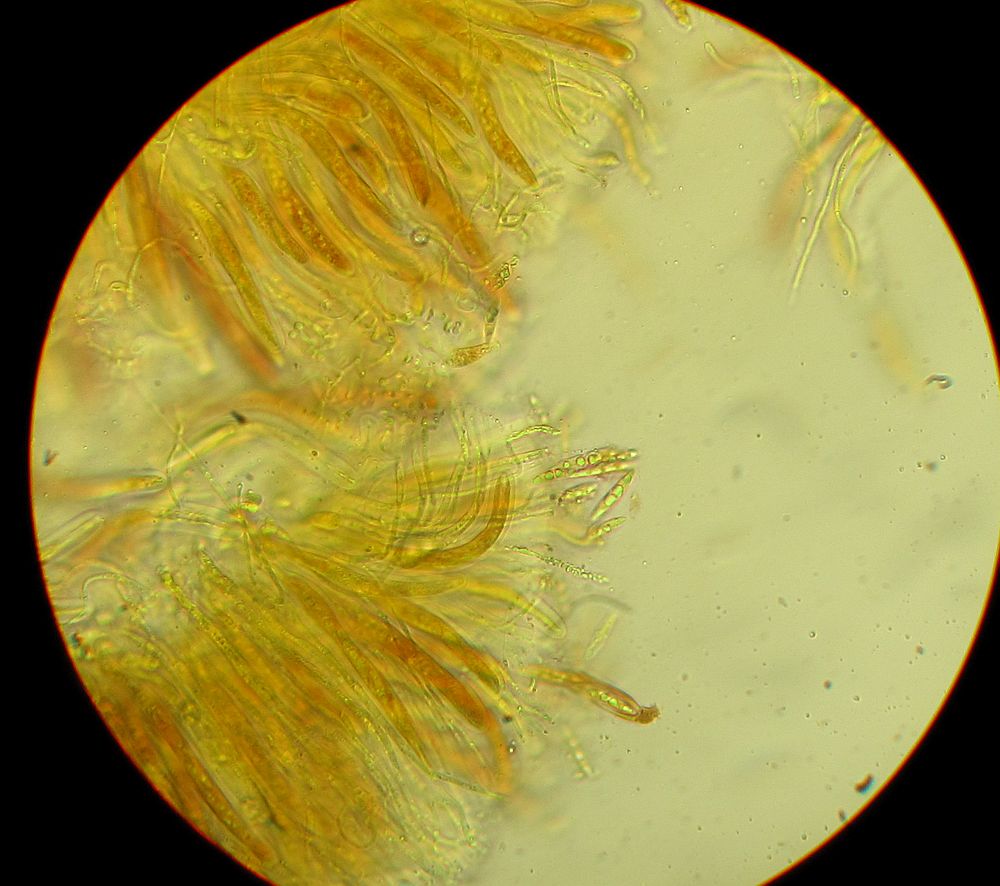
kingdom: Fungi
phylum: Ascomycota
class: Dothideomycetes
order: Pleosporales
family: Lophiostomataceae
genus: Lophiostoma
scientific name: Lophiostoma vagabundum
